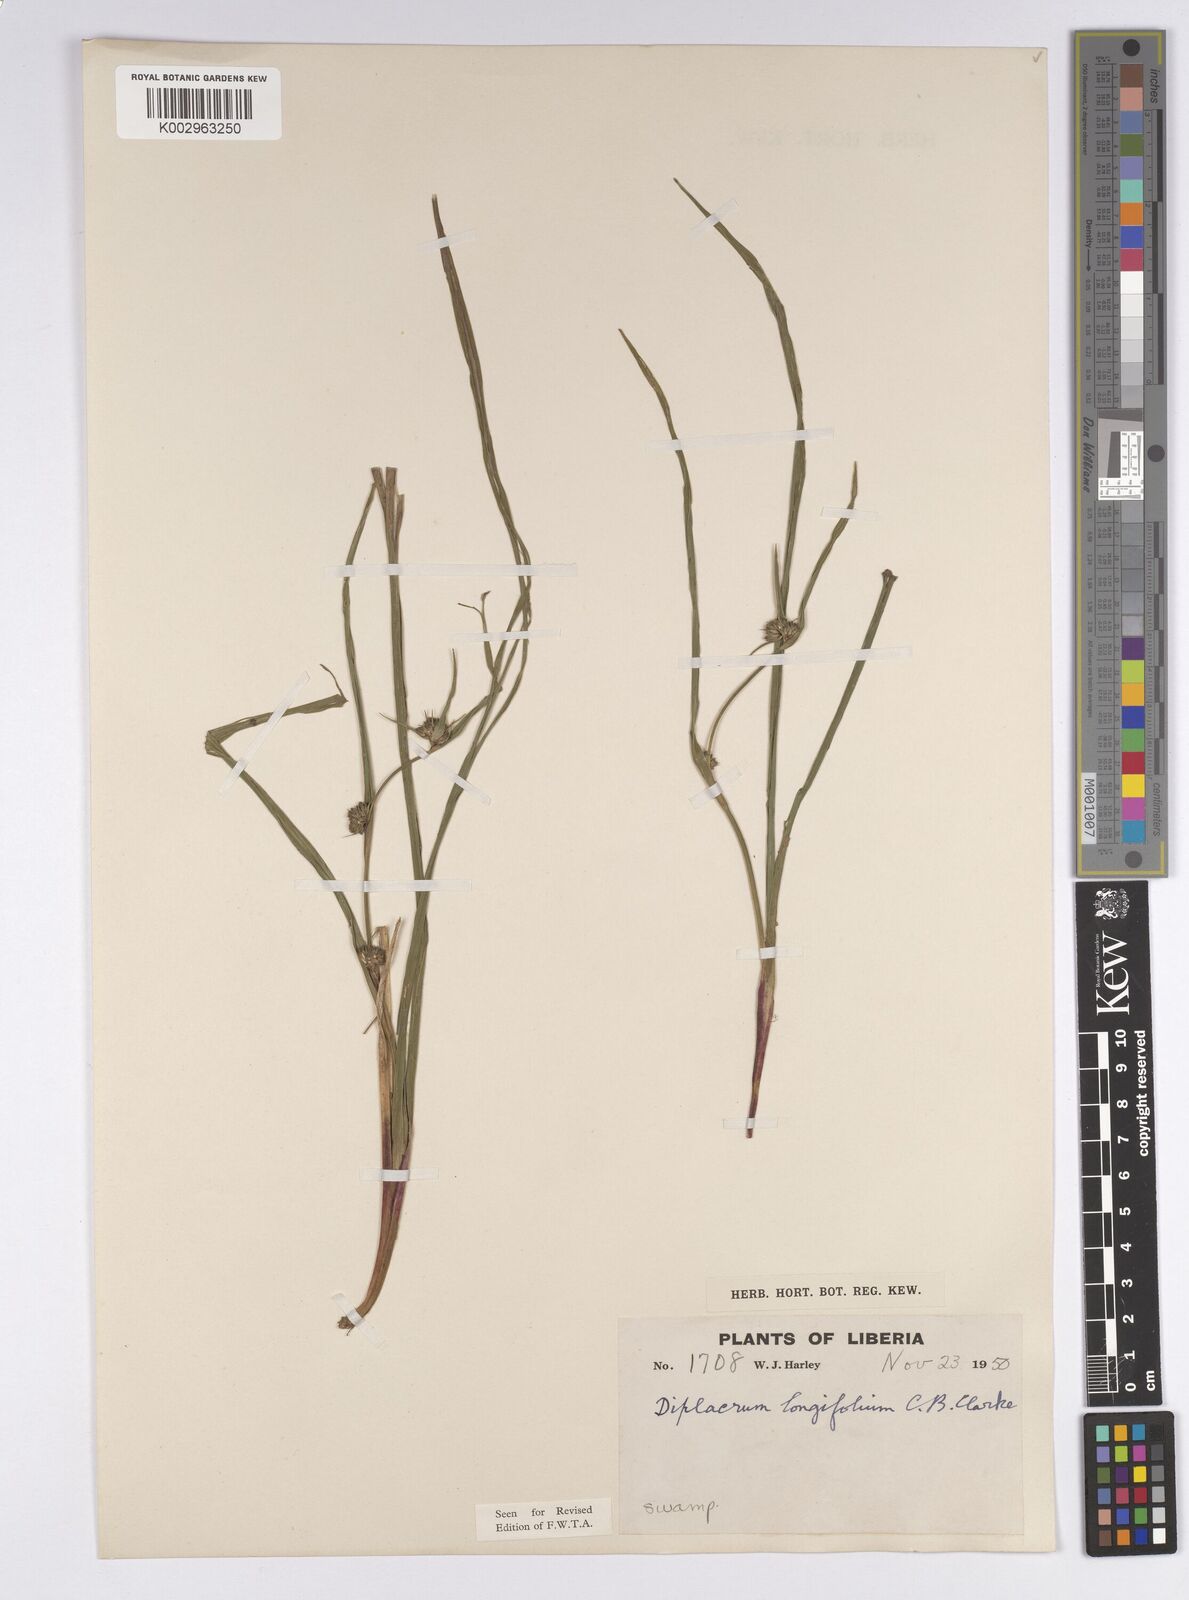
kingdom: Plantae
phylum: Tracheophyta
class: Liliopsida
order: Poales
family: Cyperaceae
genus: Diplacrum
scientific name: Diplacrum capitatum
